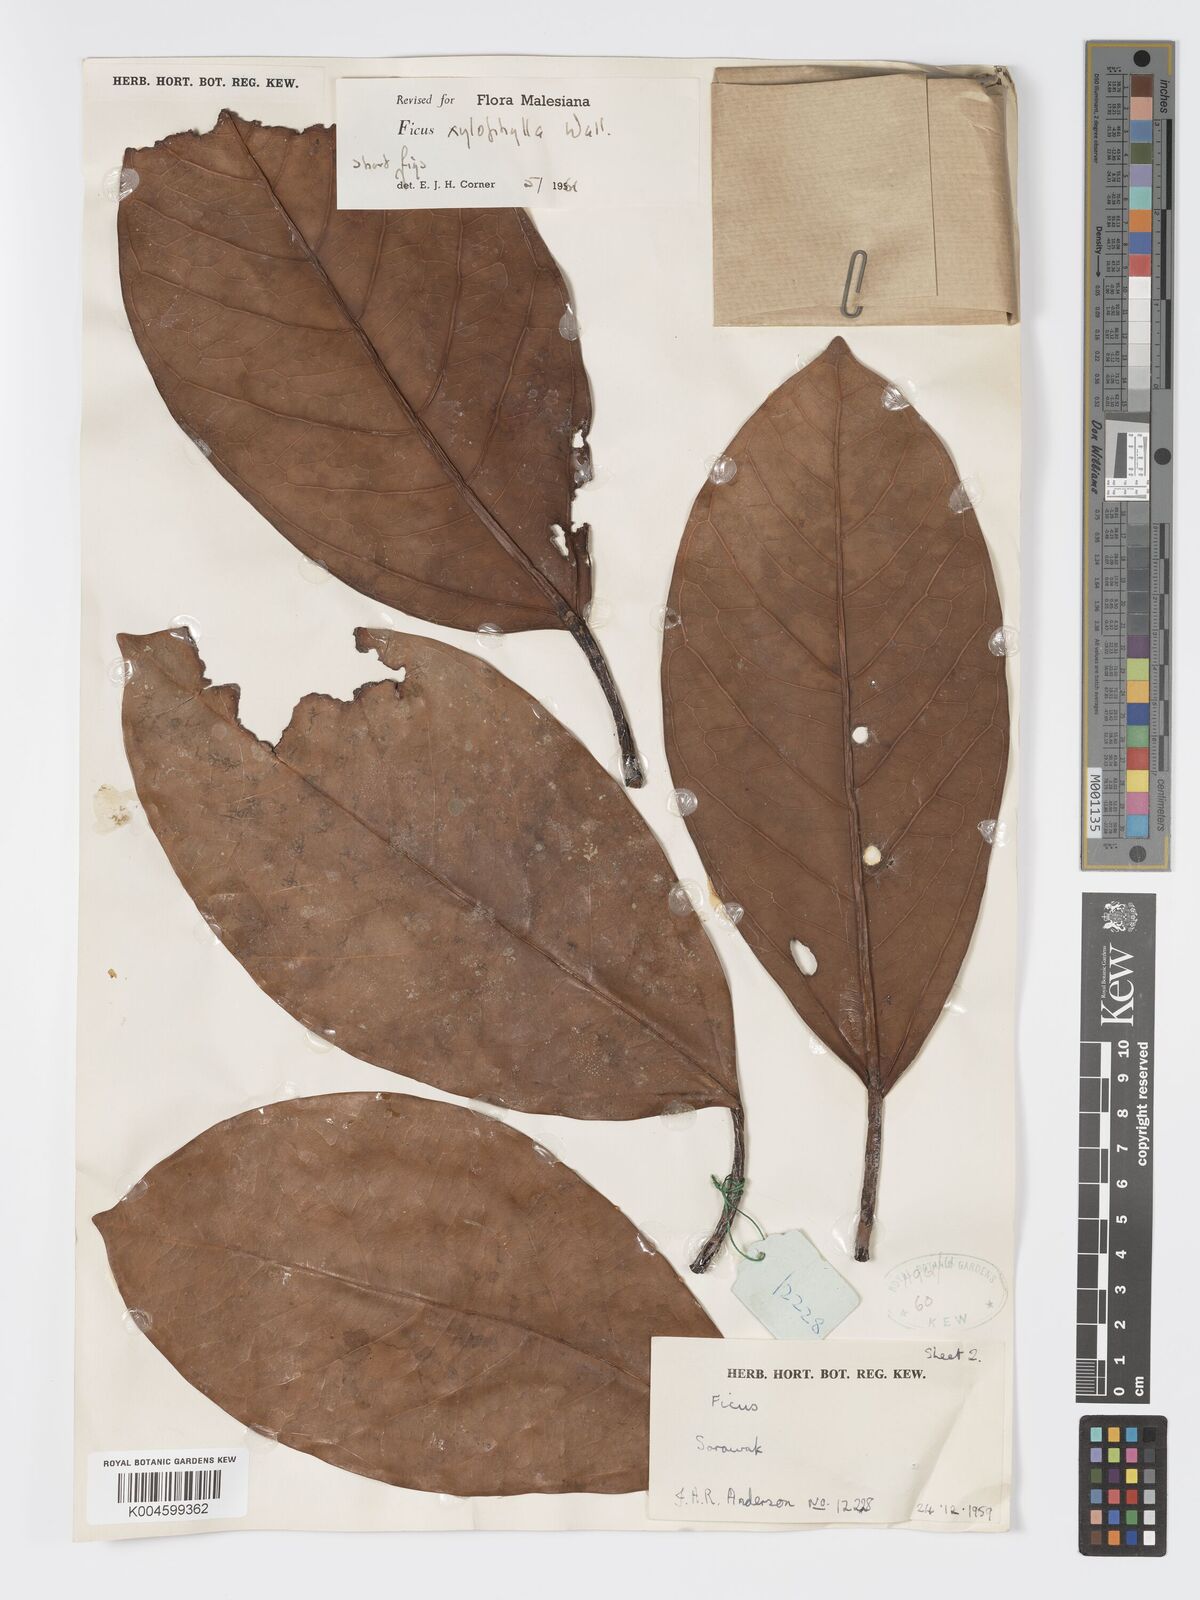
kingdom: Plantae
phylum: Tracheophyta
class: Magnoliopsida
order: Rosales
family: Moraceae
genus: Ficus
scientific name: Ficus xylophylla
